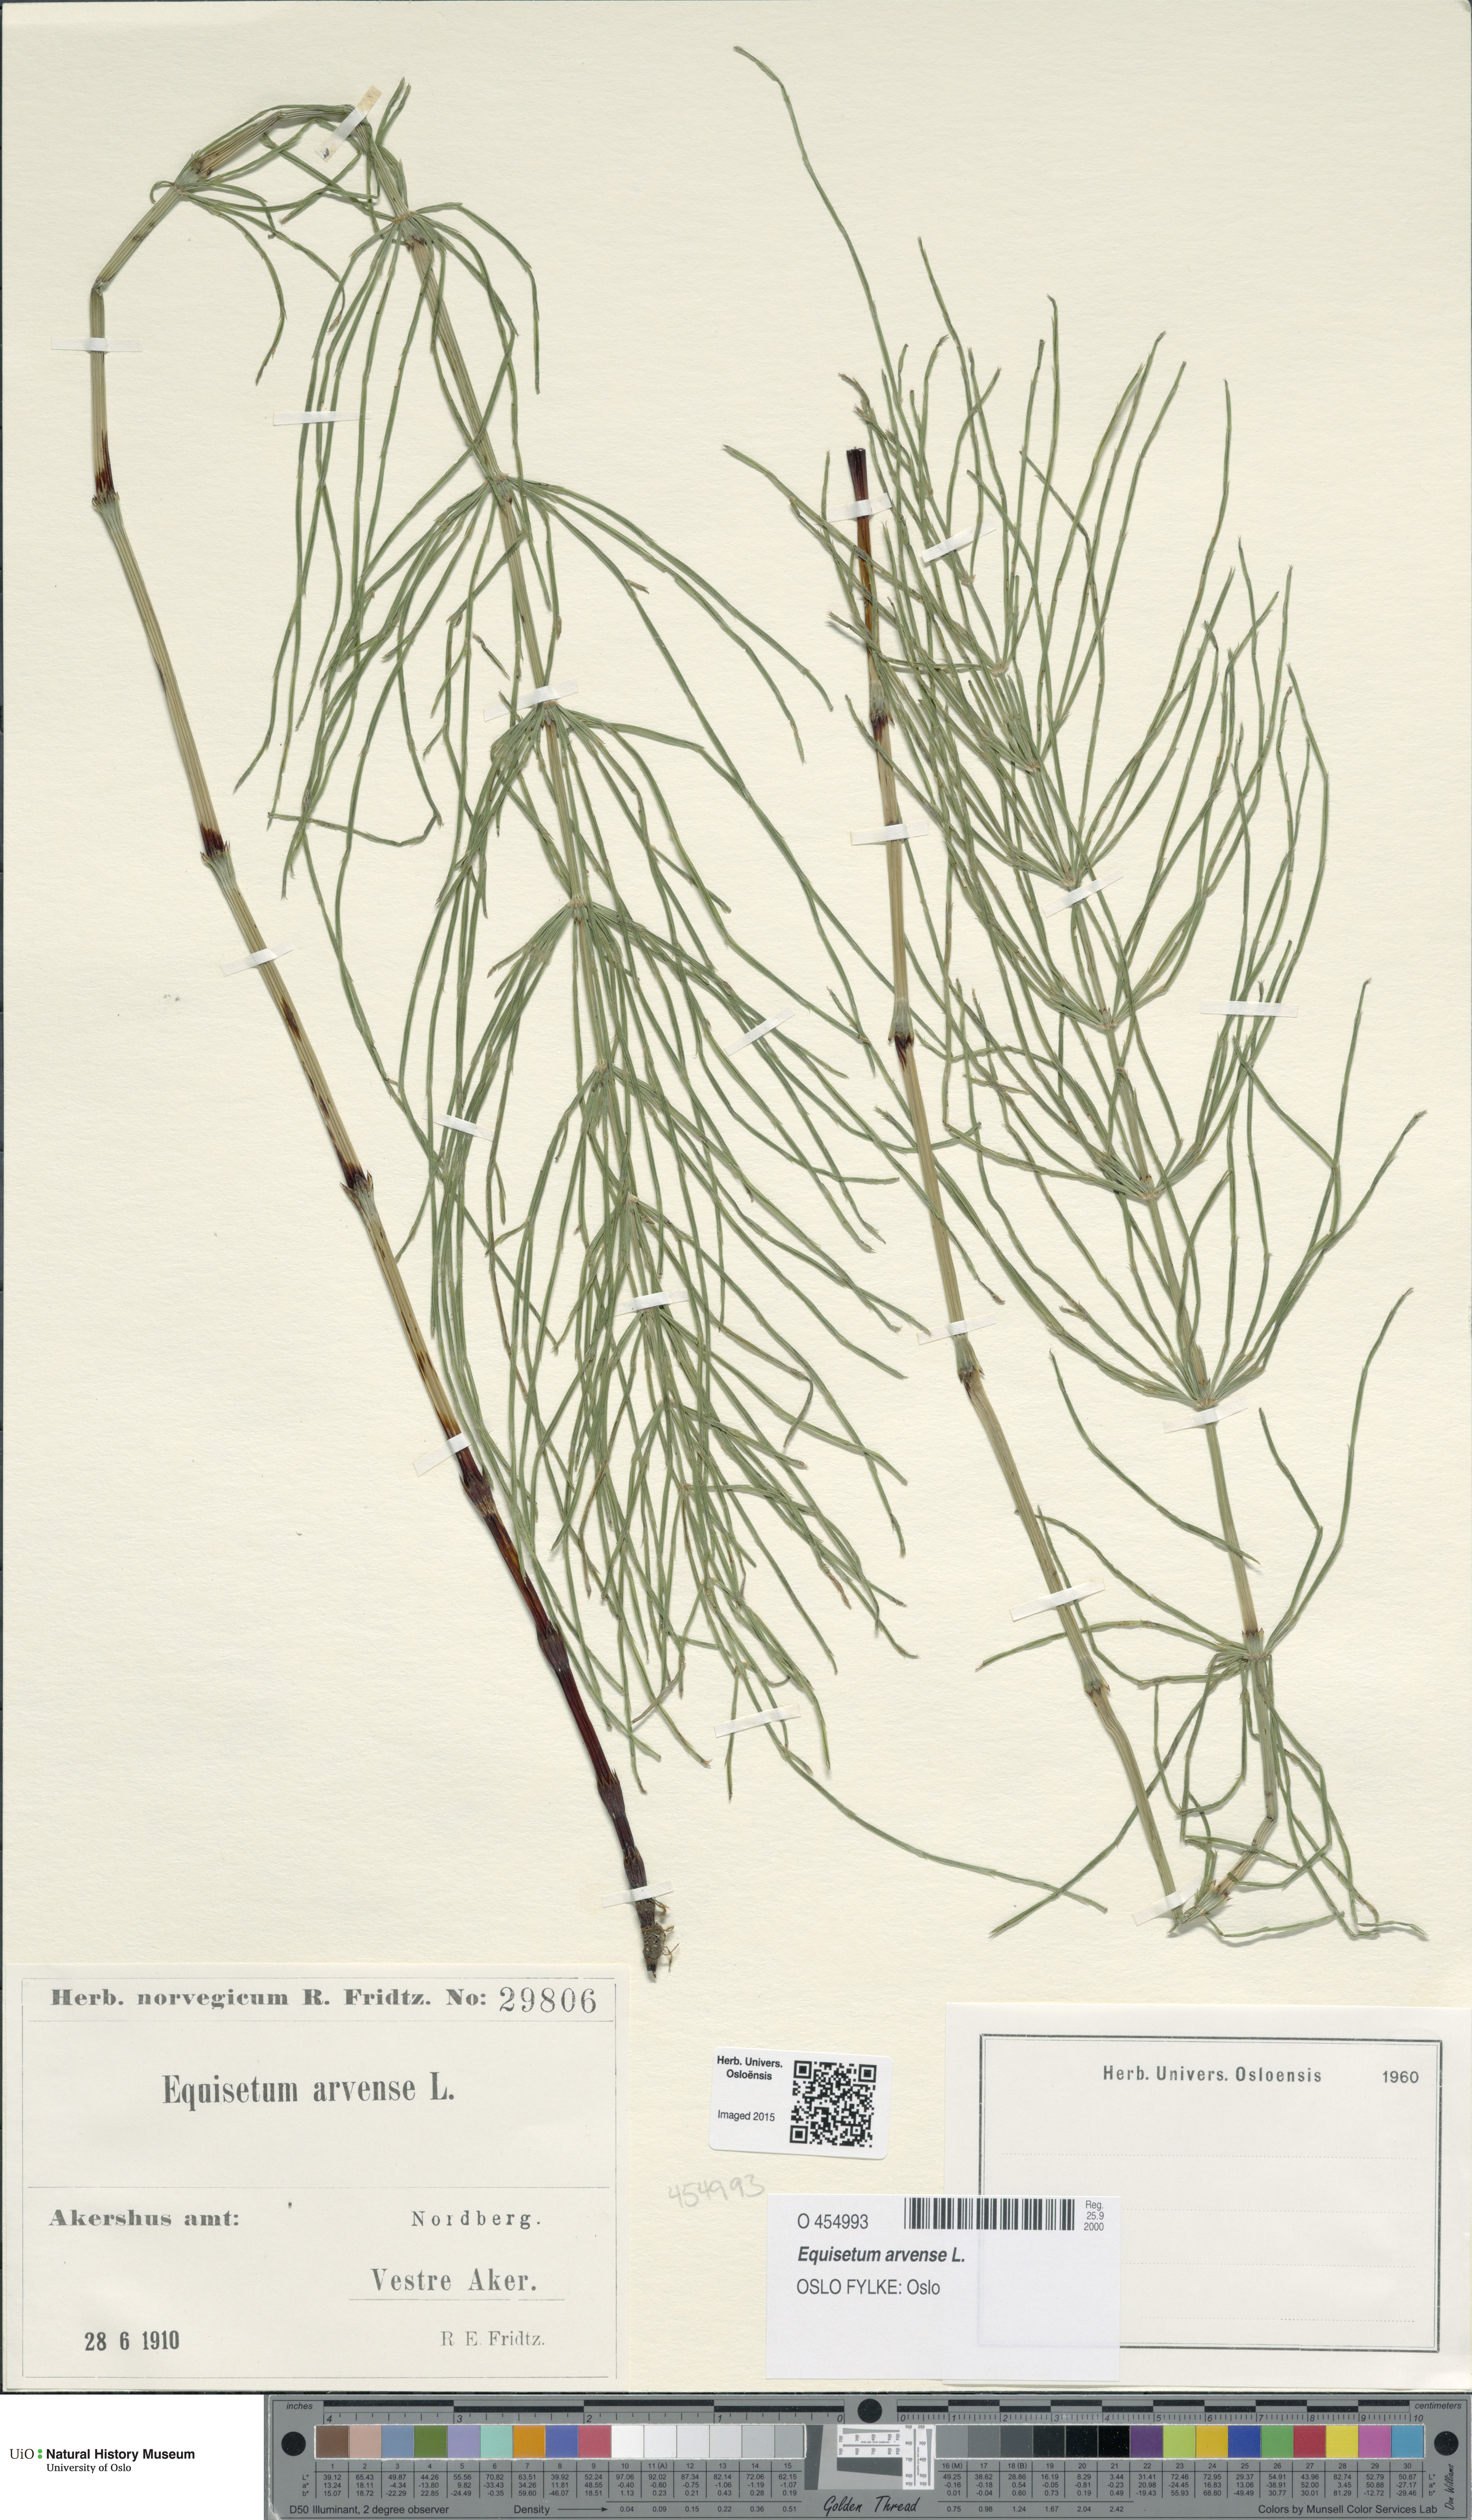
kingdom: Plantae
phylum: Tracheophyta
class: Polypodiopsida
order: Equisetales
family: Equisetaceae
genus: Equisetum
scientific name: Equisetum arvense
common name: Field horsetail
